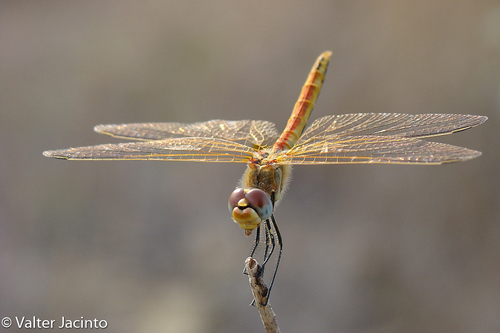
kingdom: Animalia
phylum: Arthropoda
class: Insecta
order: Odonata
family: Libellulidae
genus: Sympetrum
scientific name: Sympetrum fonscolombii
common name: Red-veined darter
